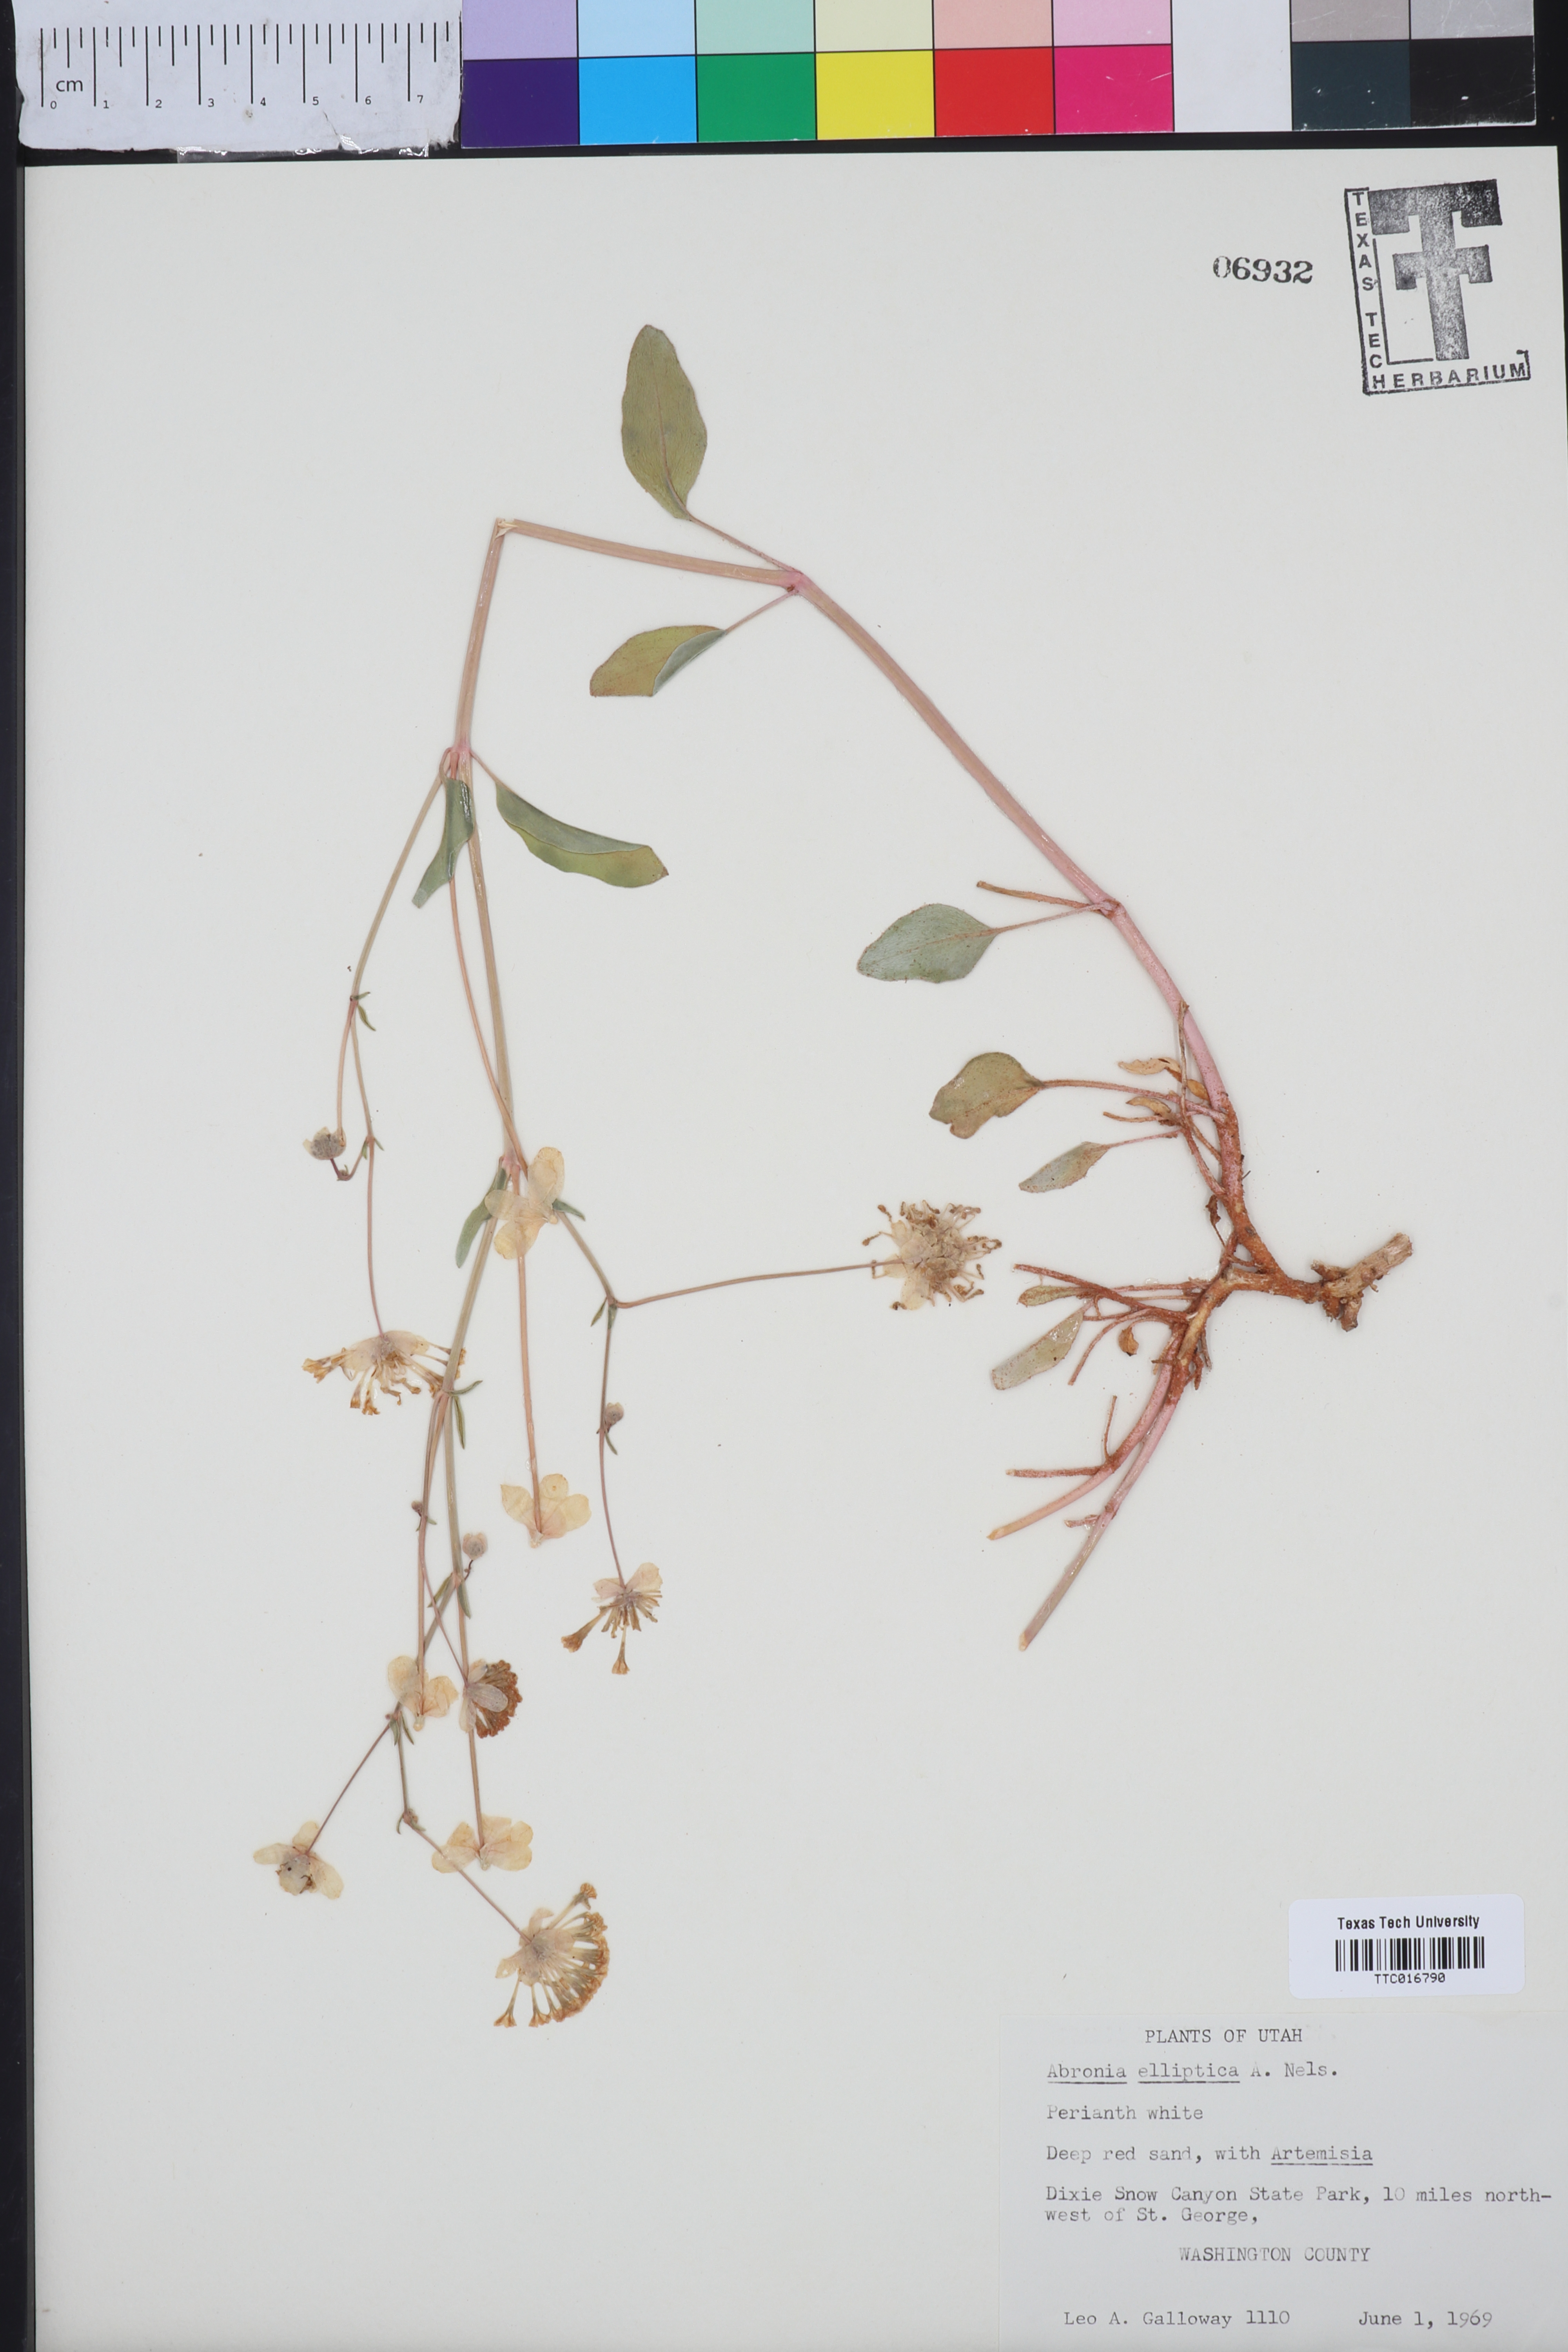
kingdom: Plantae
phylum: Tracheophyta
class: Magnoliopsida
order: Caryophyllales
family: Nyctaginaceae
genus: Abronia
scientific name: Abronia elliptica
